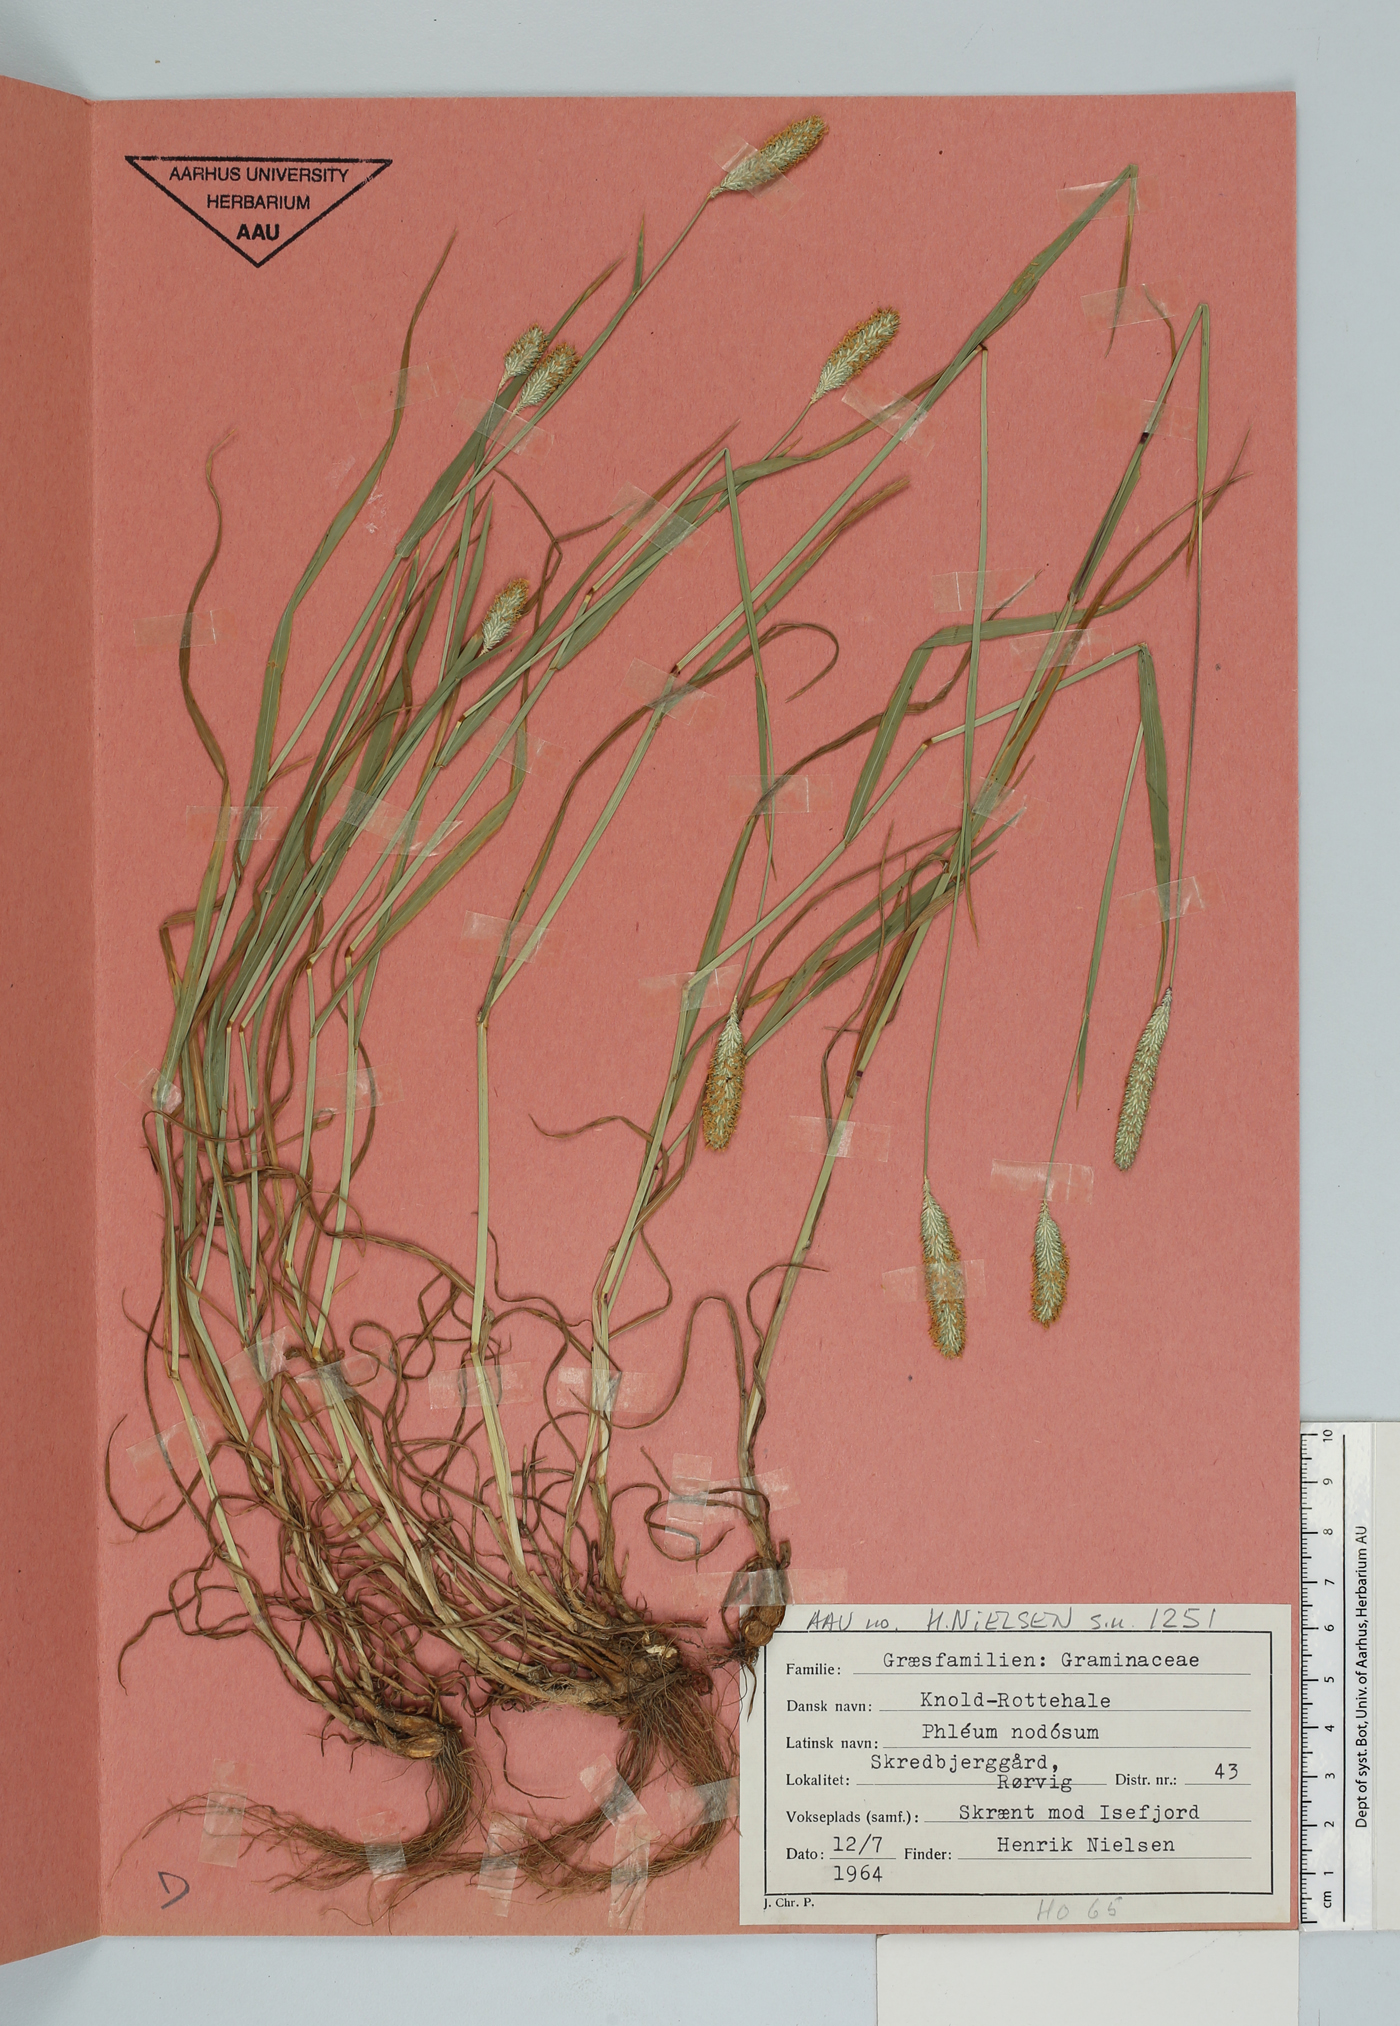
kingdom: Plantae
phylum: Tracheophyta
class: Liliopsida
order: Poales
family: Poaceae
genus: Phleum
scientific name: Phleum bertolonii
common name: Smaller cat's-tail
